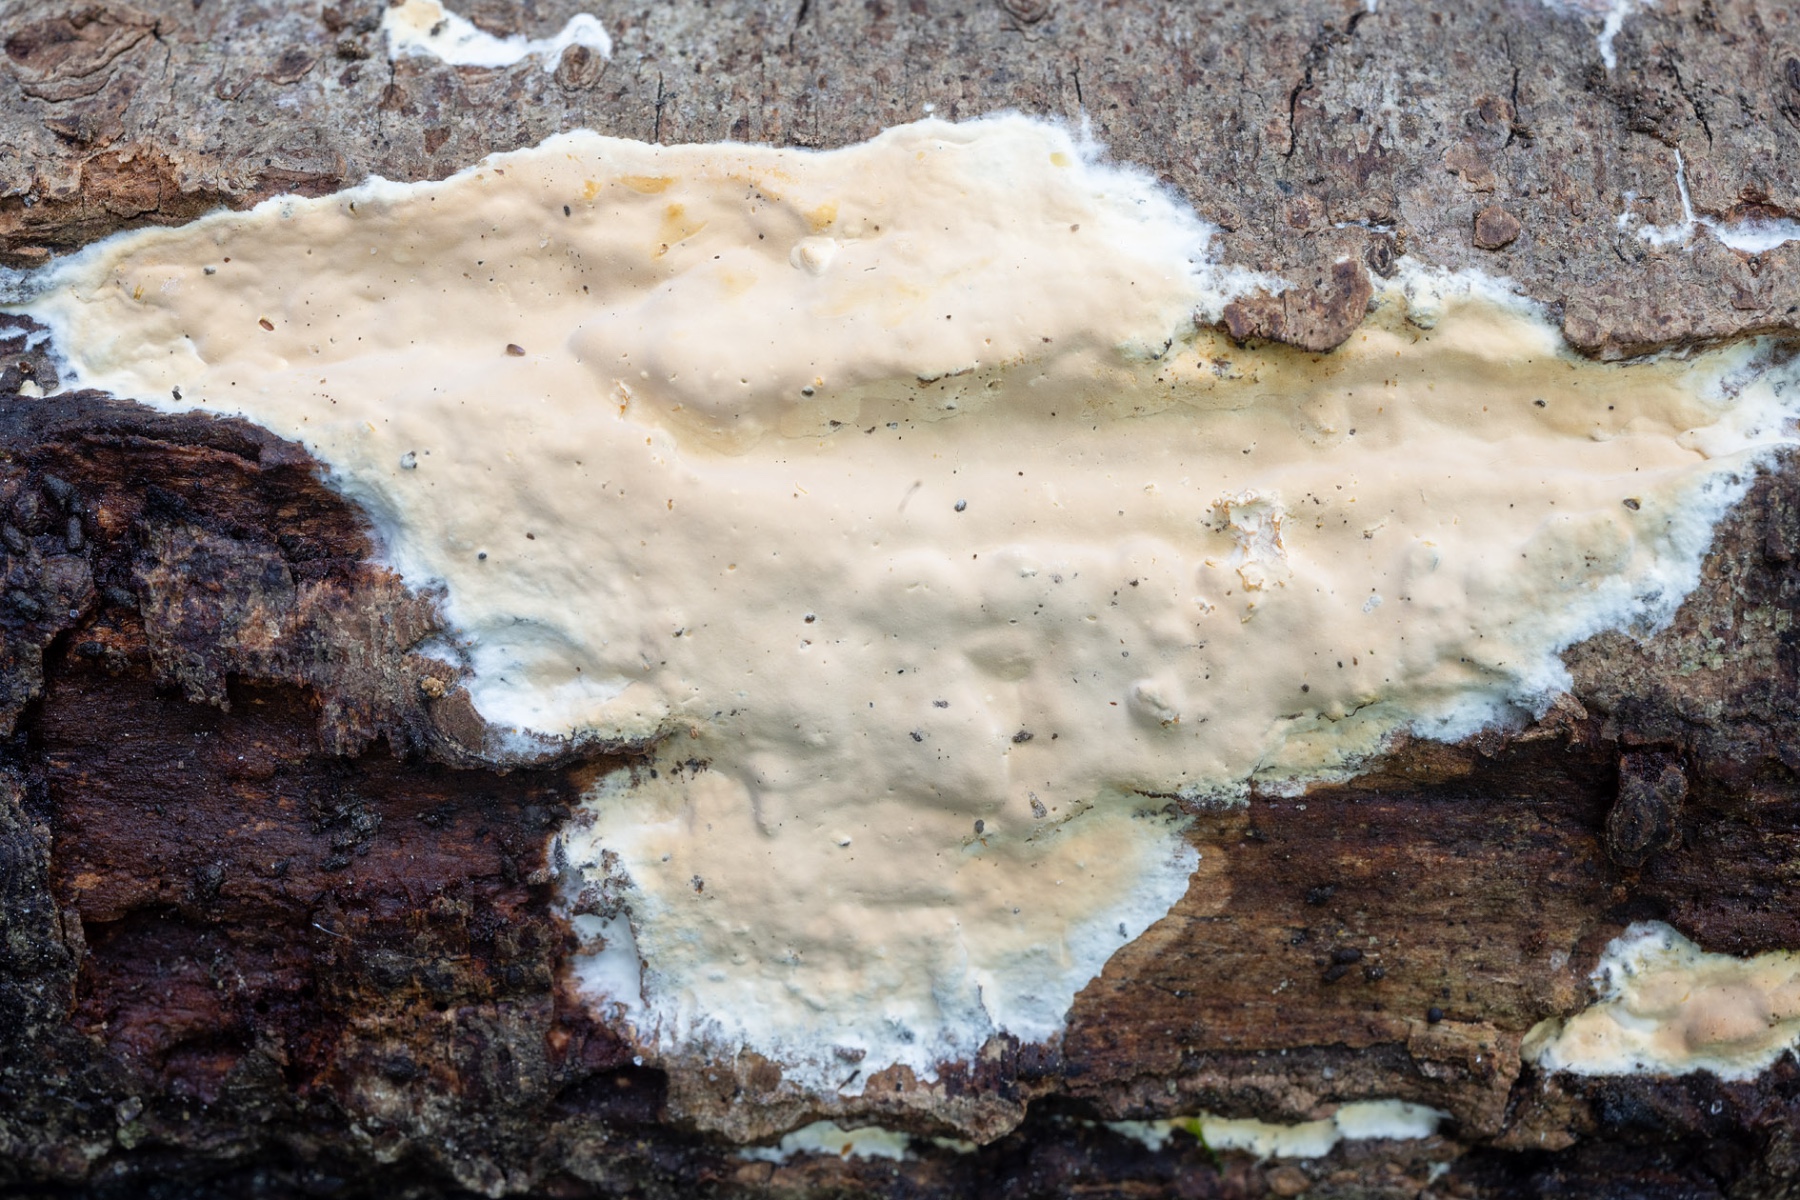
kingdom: Fungi
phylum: Basidiomycota
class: Agaricomycetes
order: Russulales
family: Peniophoraceae
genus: Scytinostroma
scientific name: Scytinostroma hemidichophyticum
